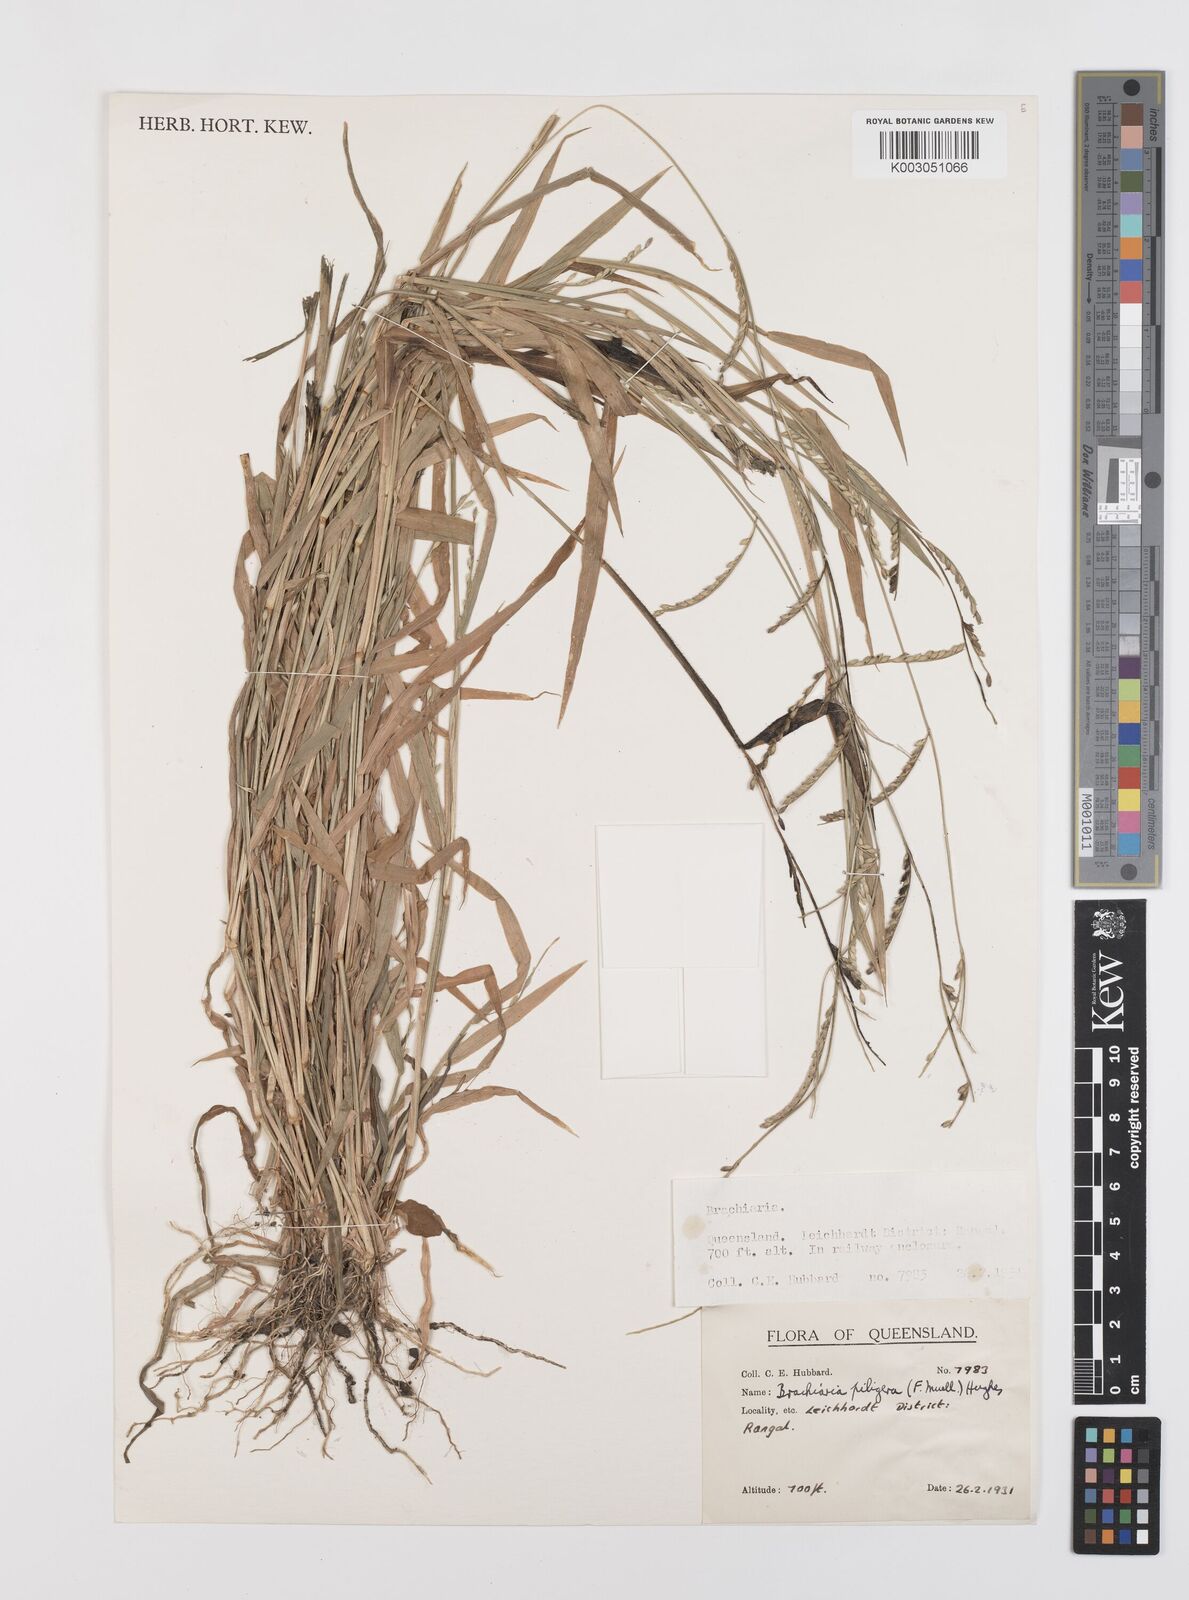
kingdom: Plantae
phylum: Tracheophyta
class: Liliopsida
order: Poales
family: Poaceae
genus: Urochloa
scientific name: Urochloa piligera
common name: Wattle signalgrass
